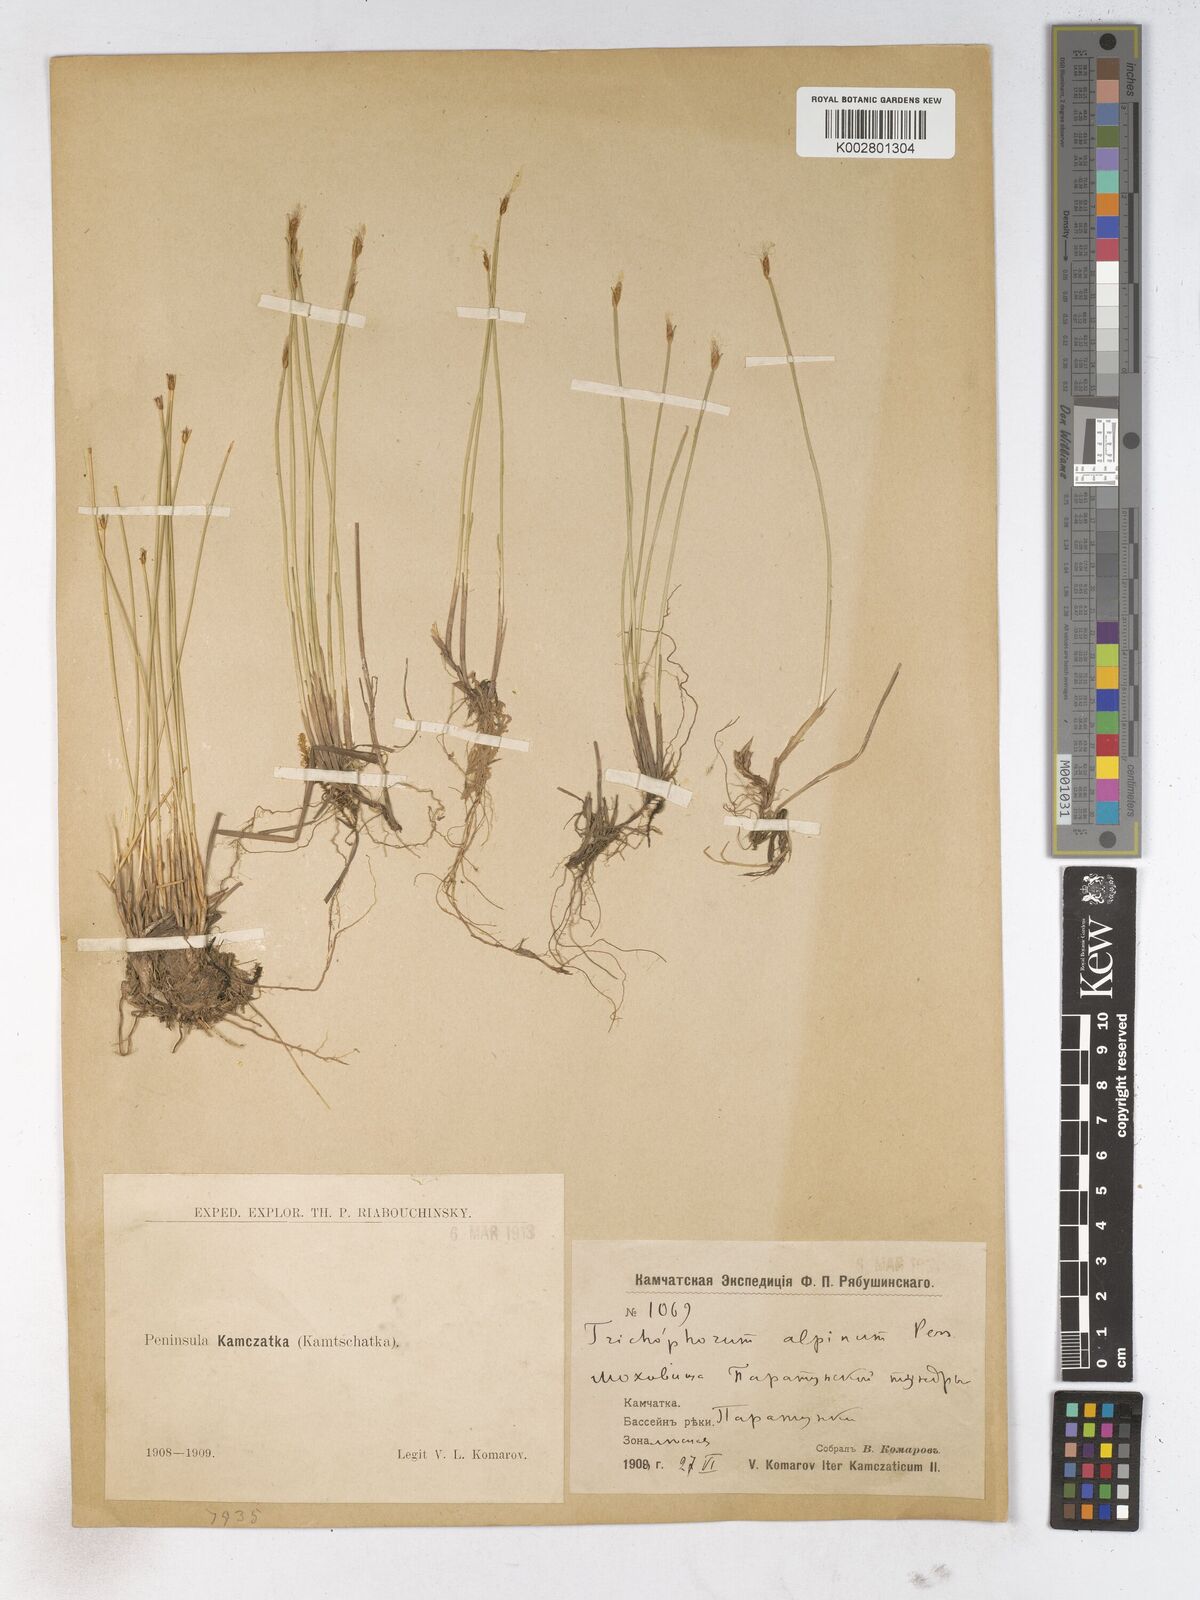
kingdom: Plantae
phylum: Tracheophyta
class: Liliopsida
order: Poales
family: Cyperaceae
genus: Trichophorum
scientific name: Trichophorum alpinum
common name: Alpine bulrush
